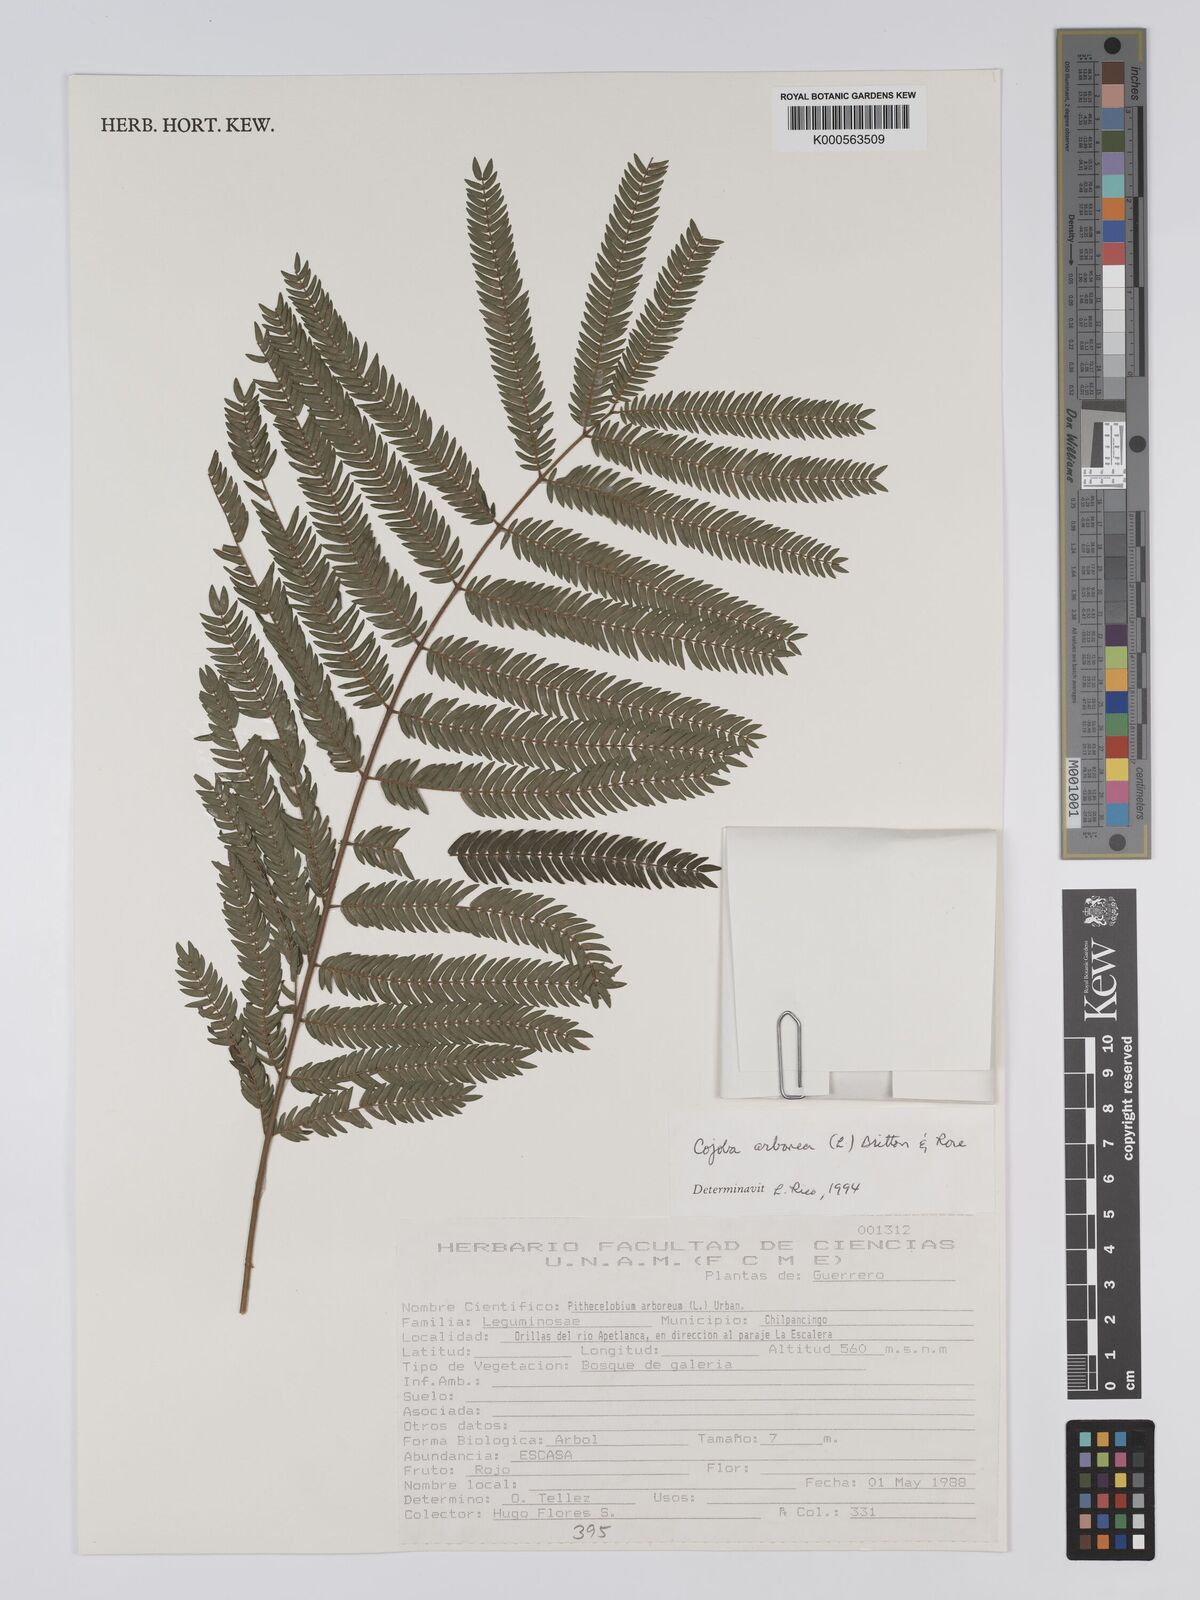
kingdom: Plantae
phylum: Tracheophyta
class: Magnoliopsida
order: Fabales
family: Fabaceae
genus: Cojoba
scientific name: Cojoba arborea
